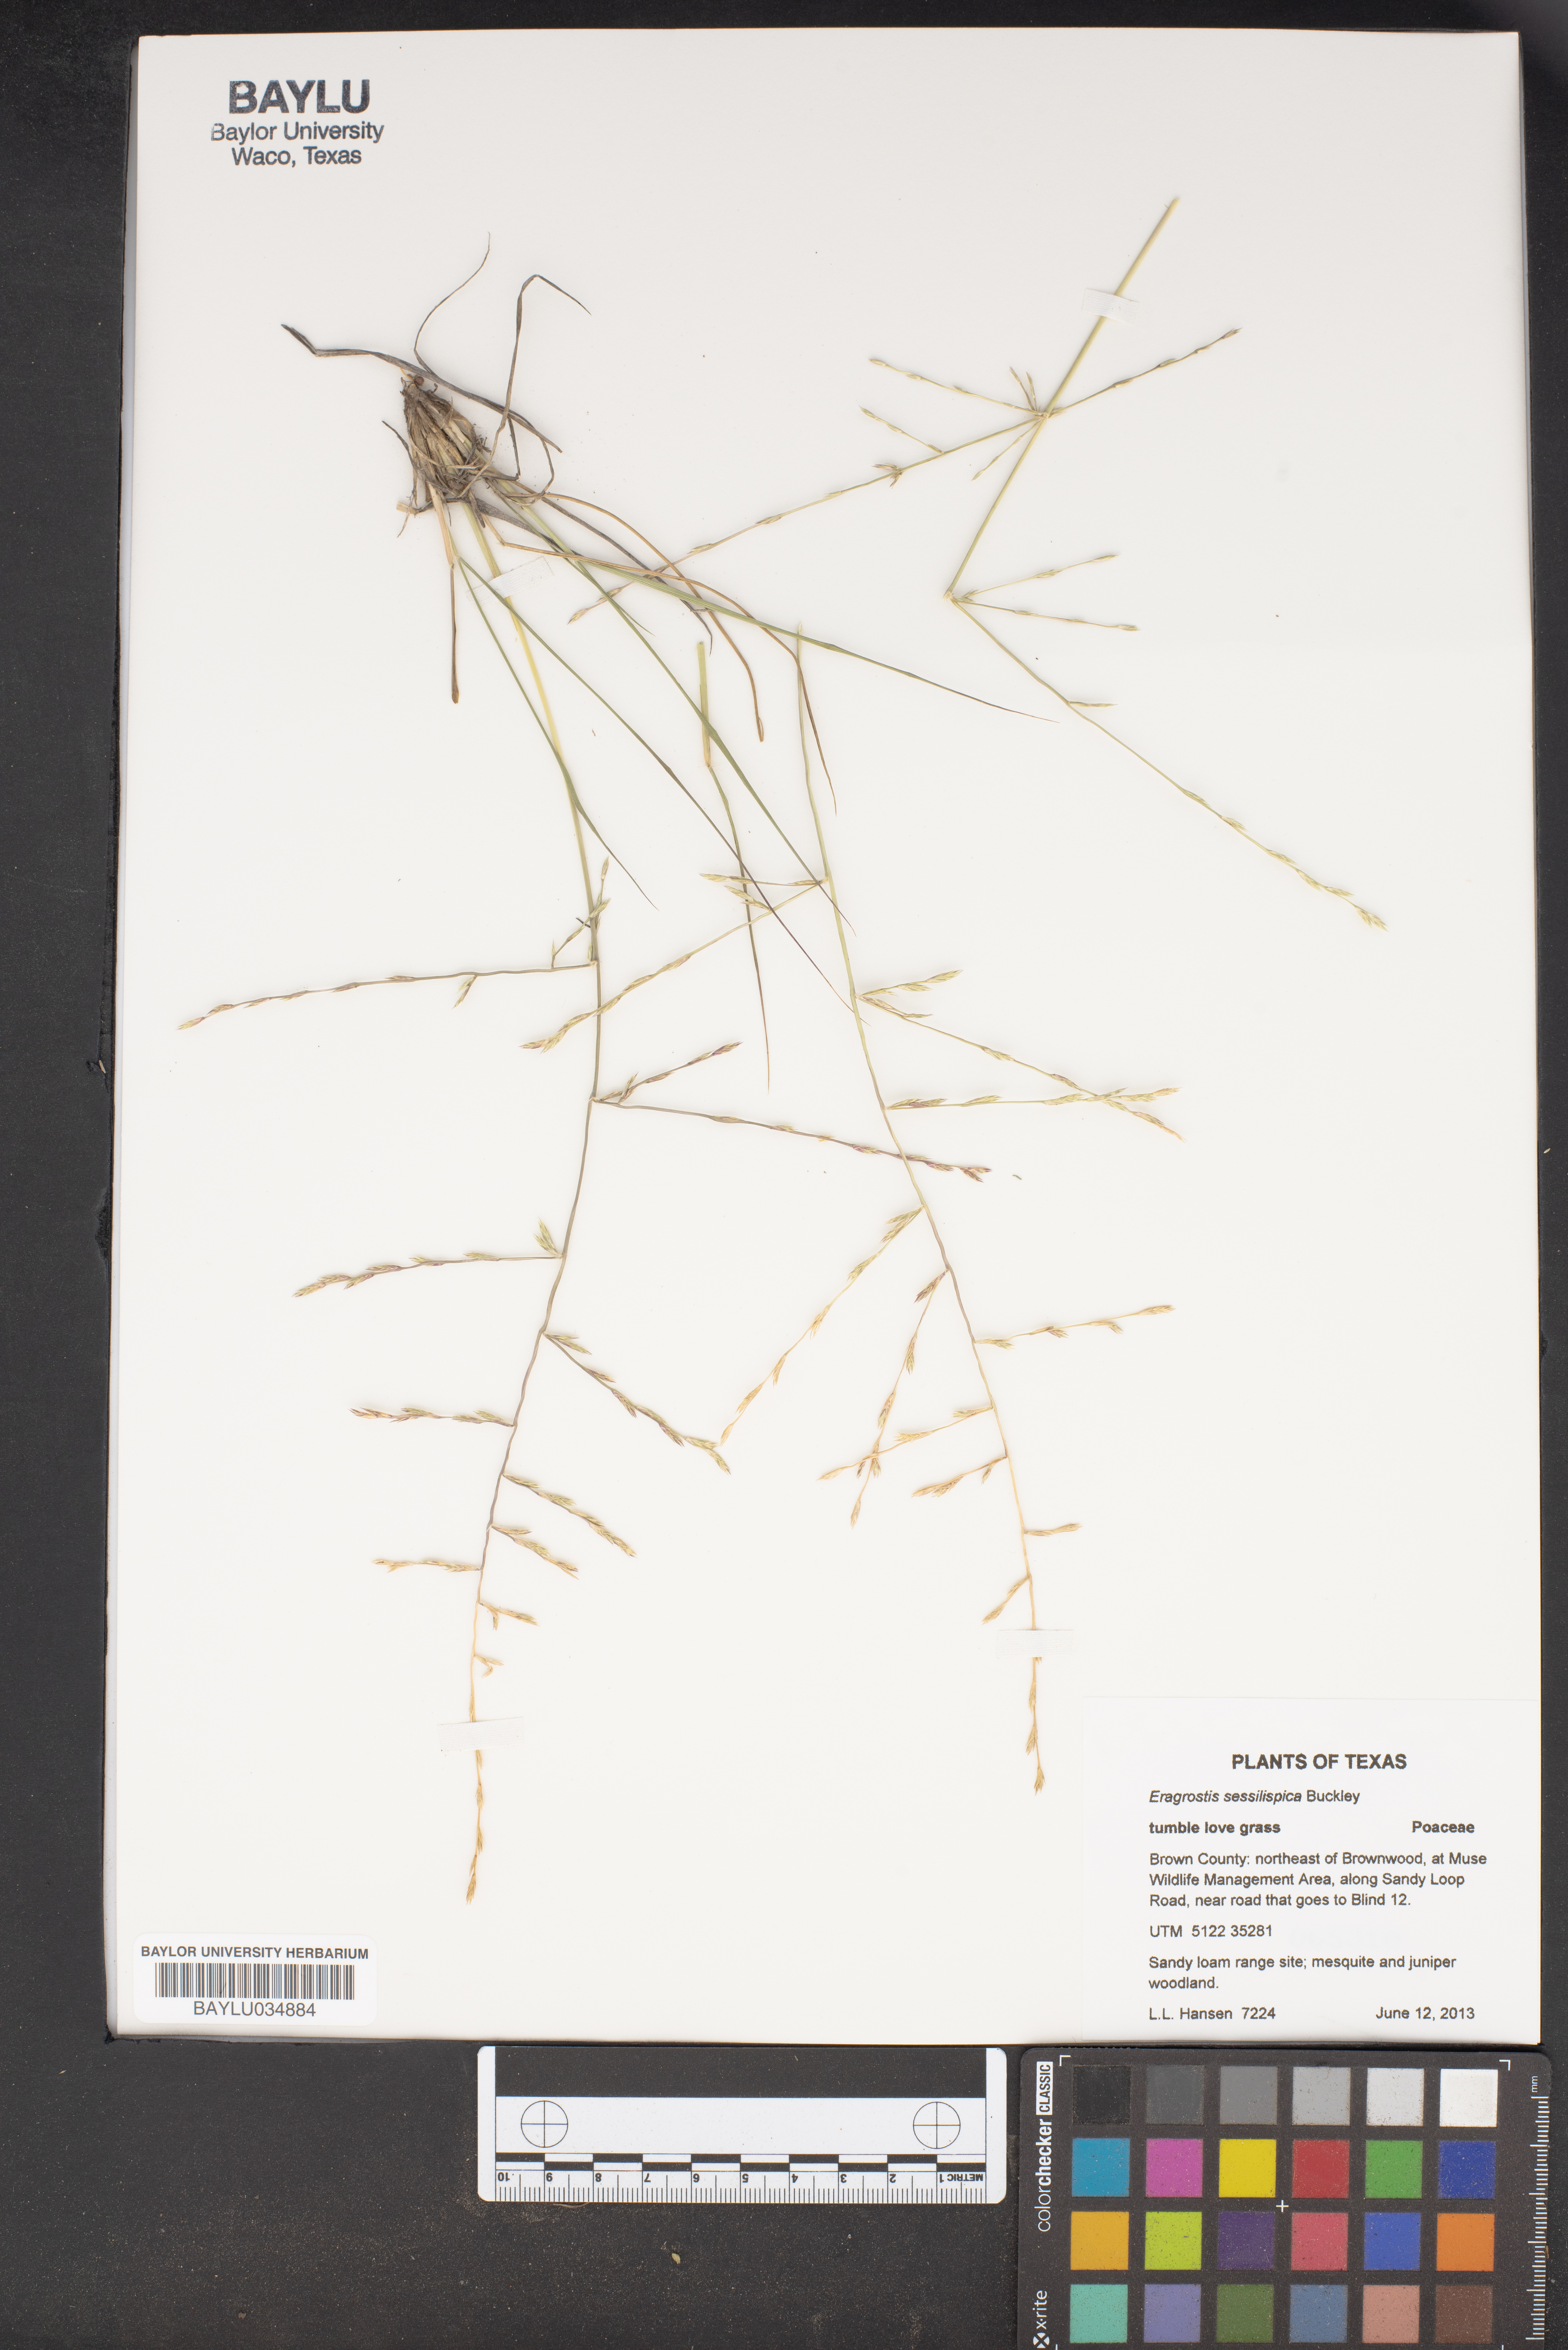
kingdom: Plantae
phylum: Tracheophyta
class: Liliopsida
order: Poales
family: Poaceae
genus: Eragrostis
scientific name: Eragrostis sessilispica
